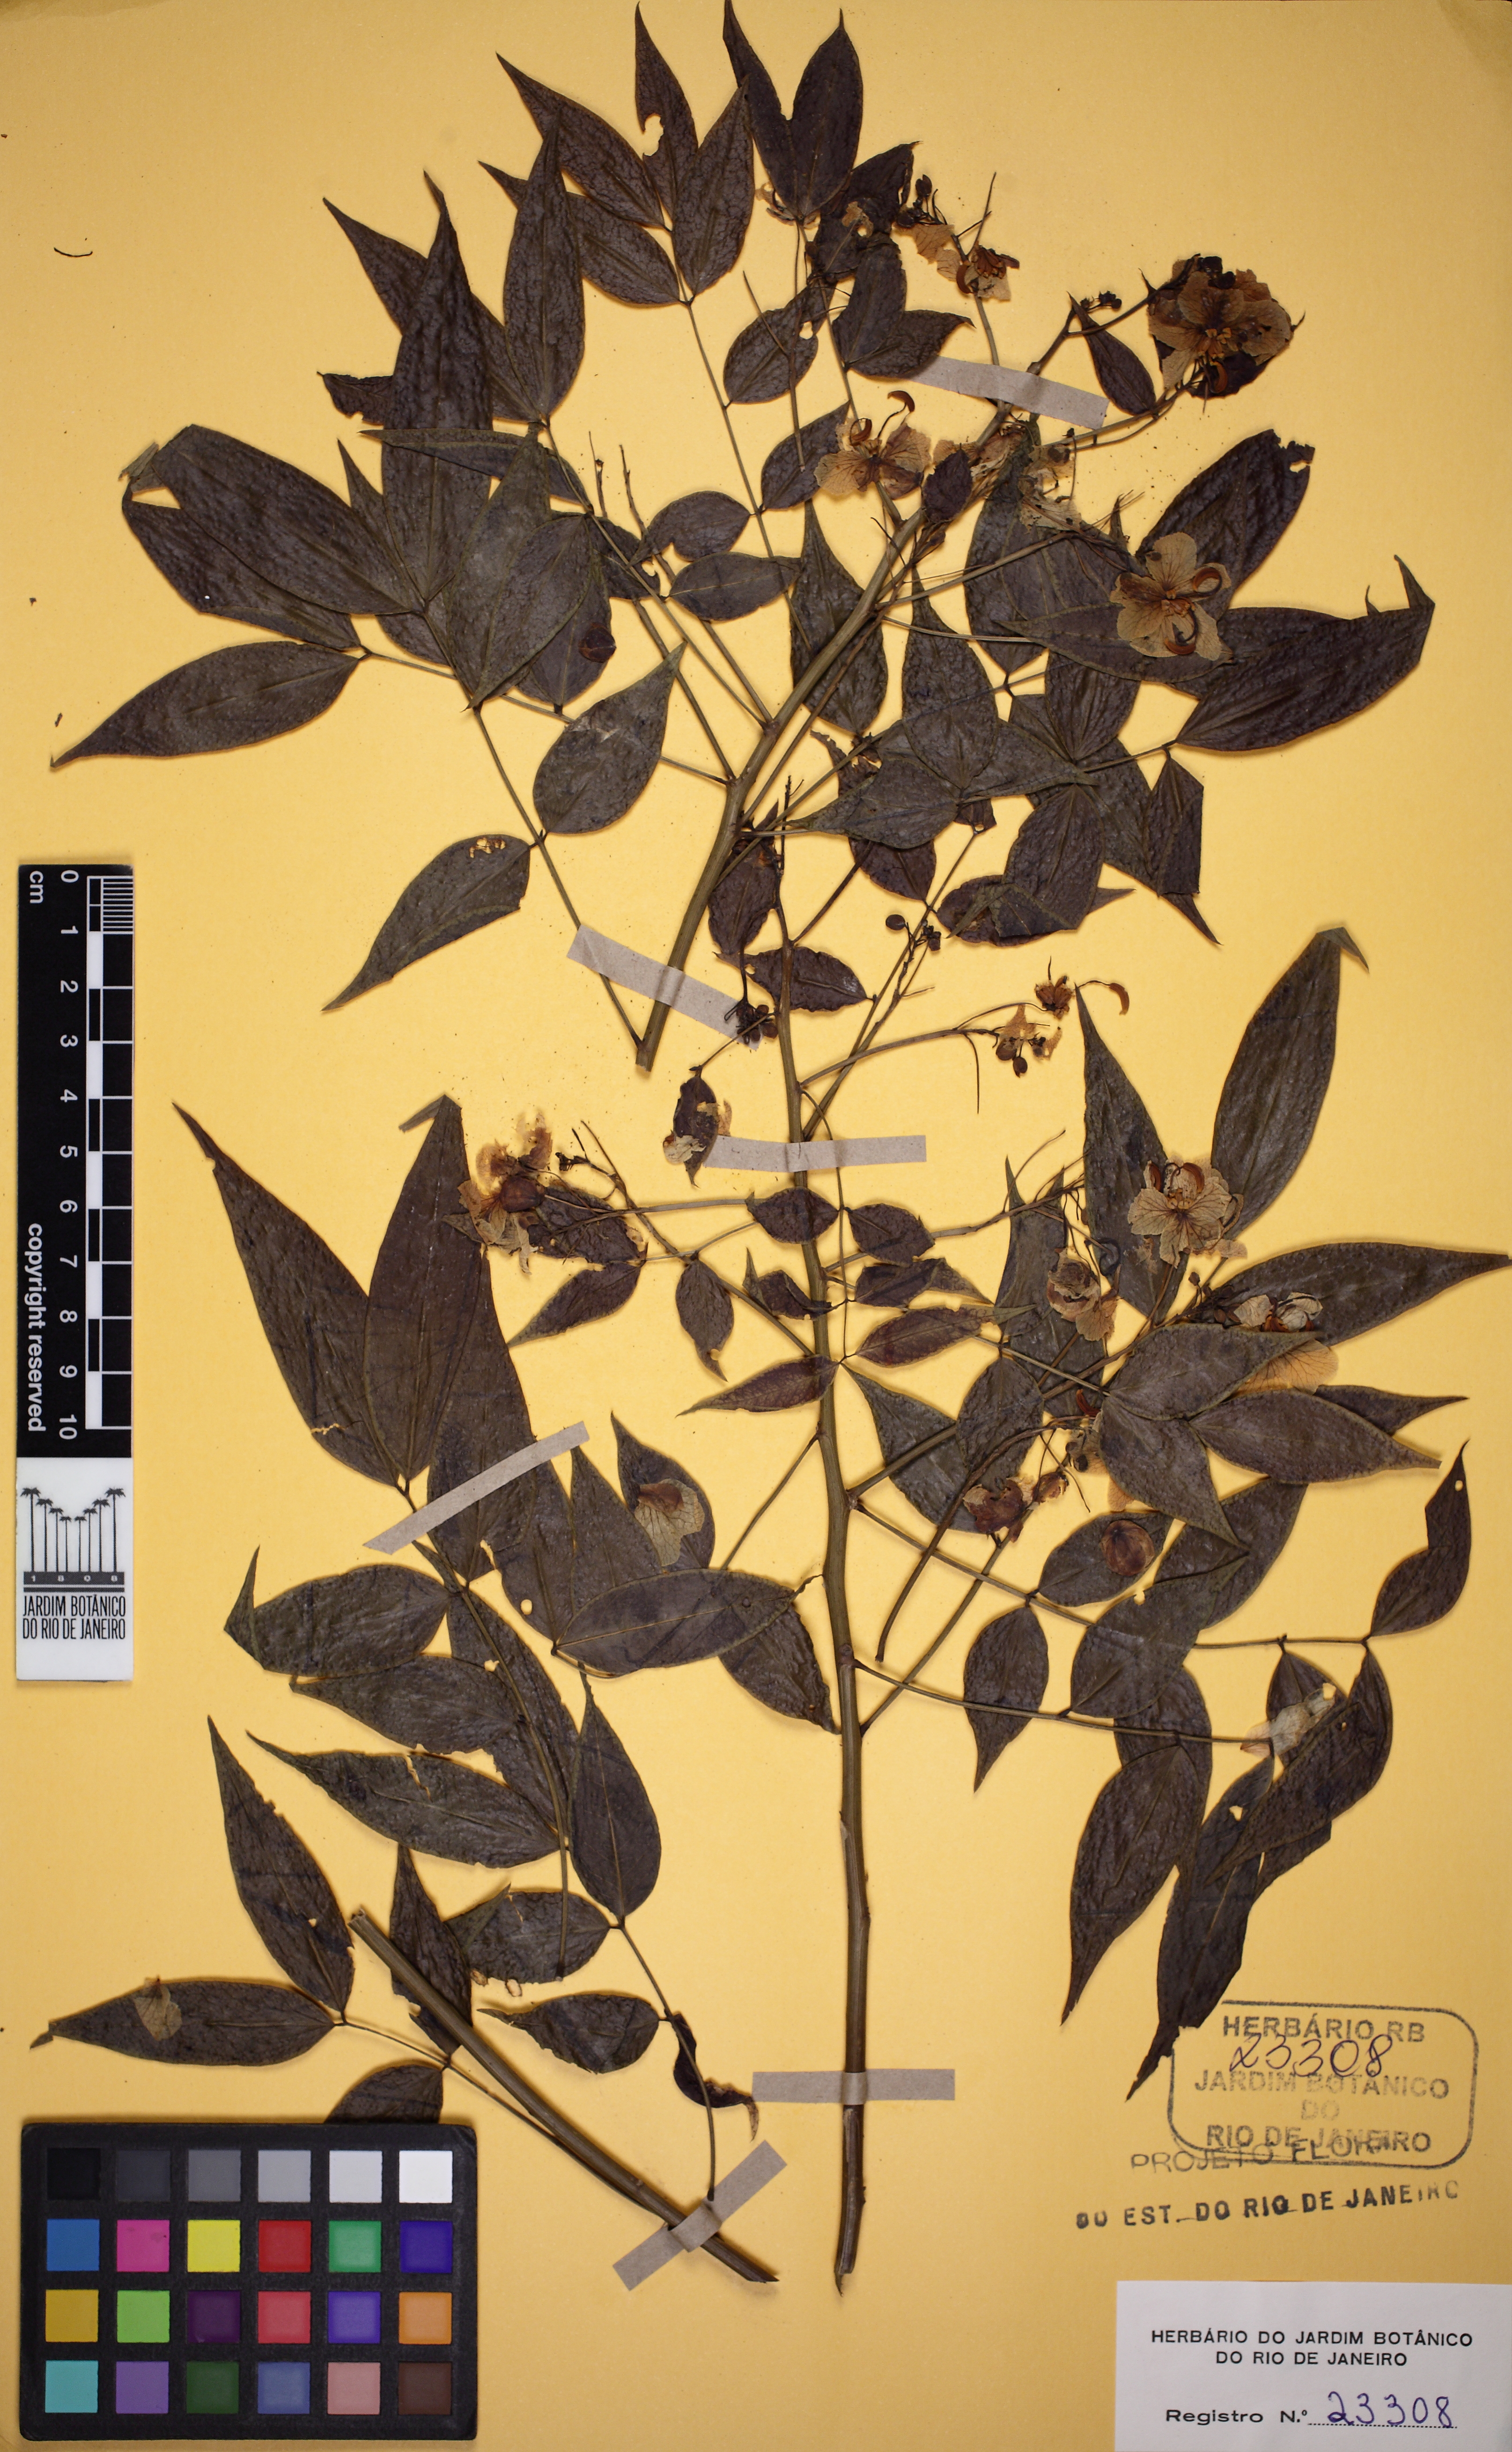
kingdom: Plantae
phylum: Tracheophyta
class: Magnoliopsida
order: Fabales
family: Fabaceae
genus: Senna
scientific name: Senna tropica
